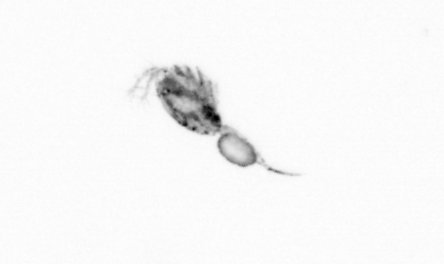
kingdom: Animalia
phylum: Arthropoda
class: Copepoda
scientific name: Copepoda
